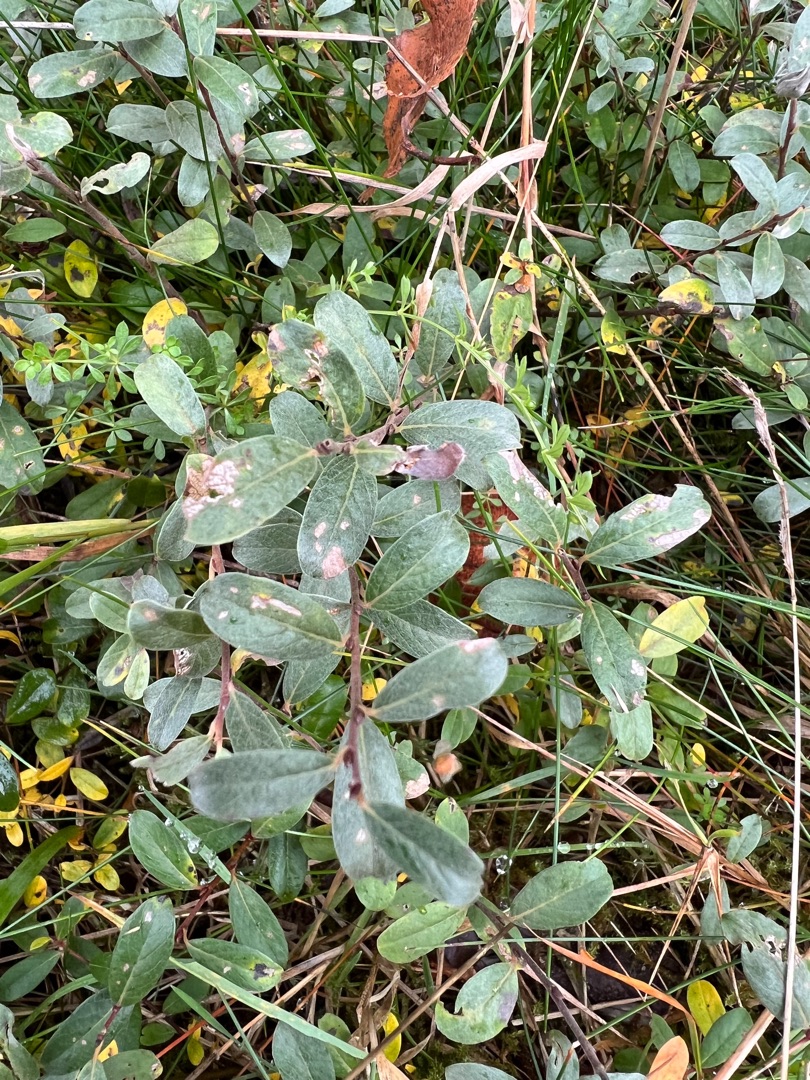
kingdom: Plantae
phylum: Tracheophyta
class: Magnoliopsida
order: Malpighiales
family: Salicaceae
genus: Salix
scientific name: Salix repens
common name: Krybende pil
